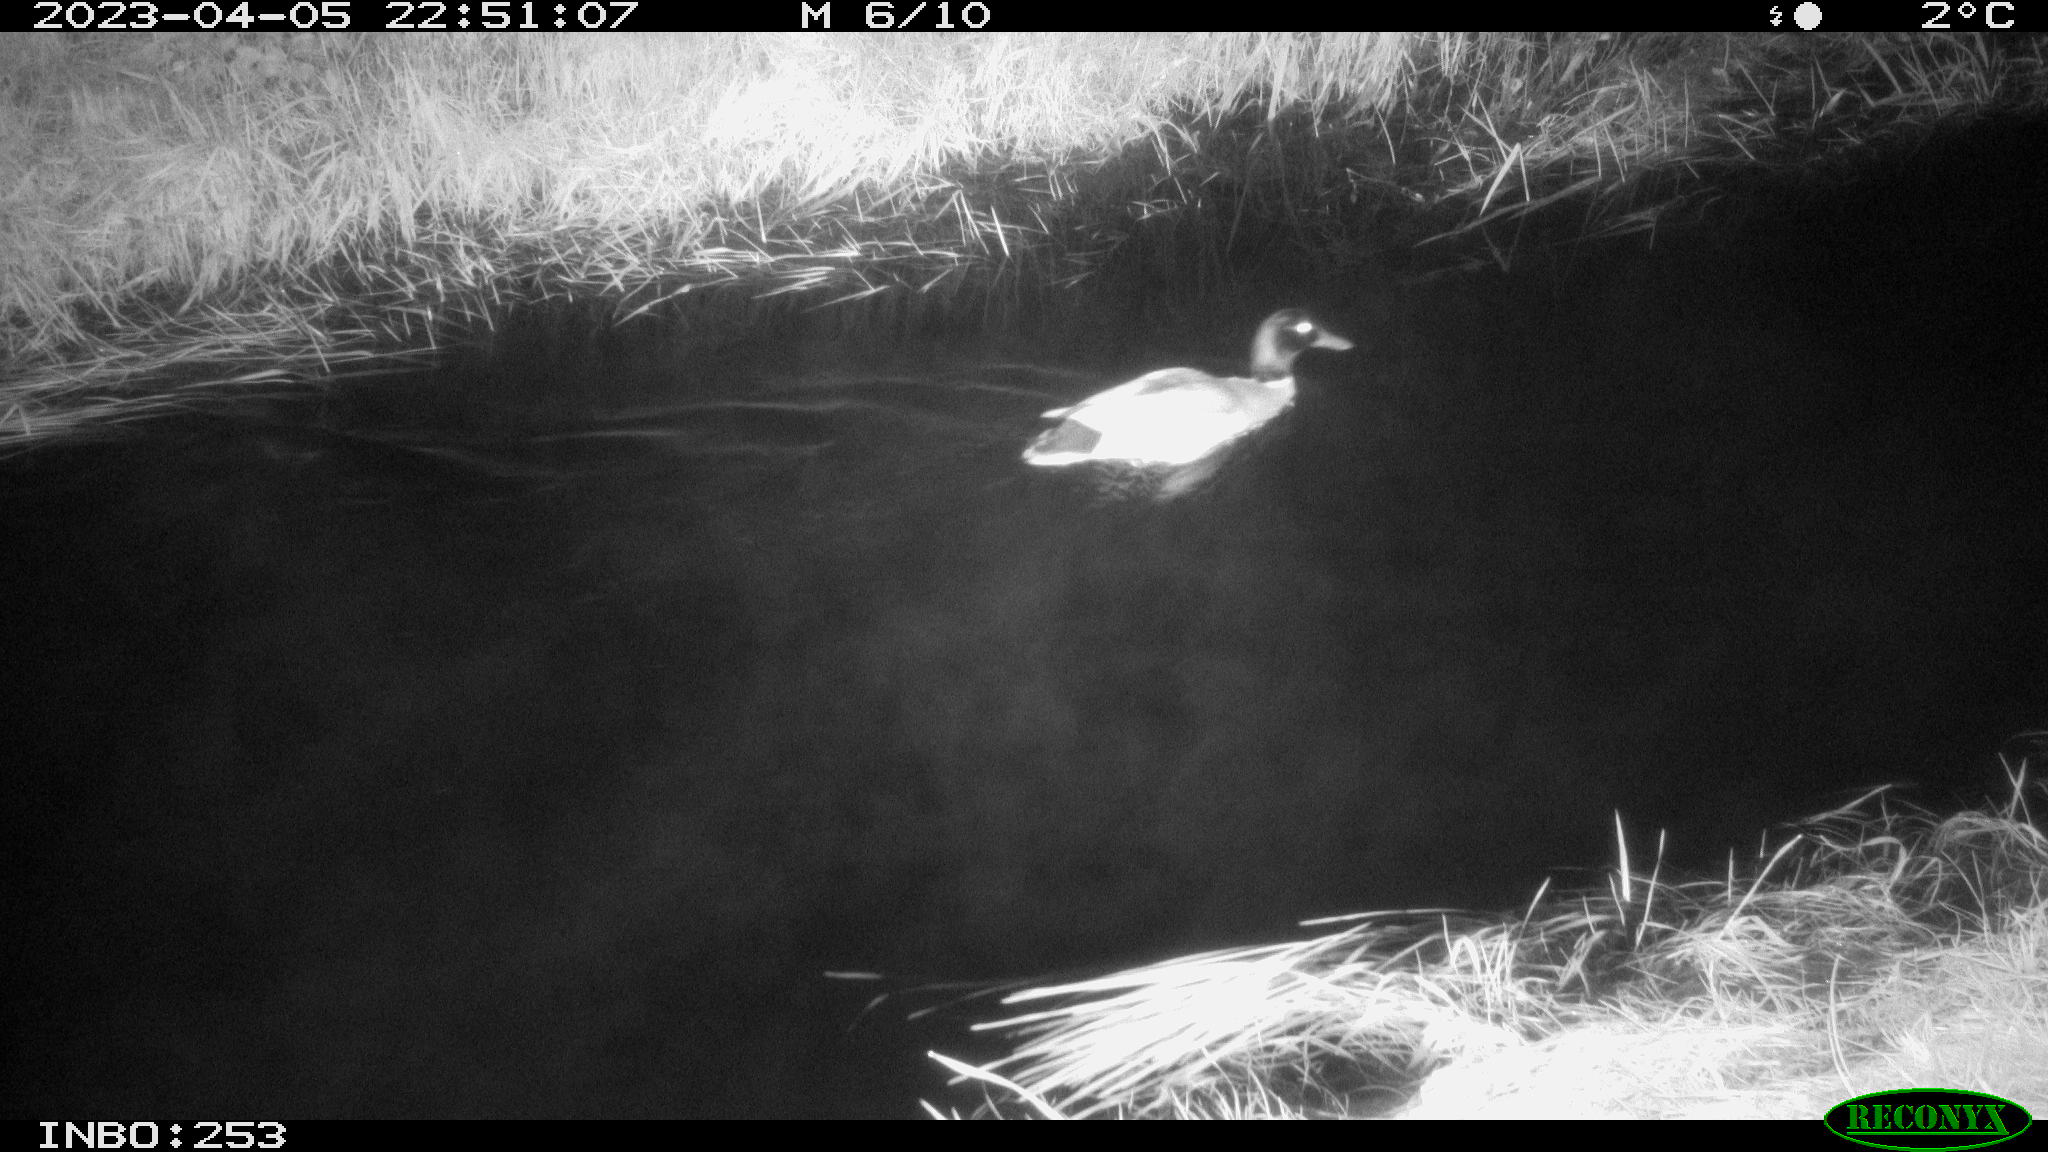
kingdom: Animalia
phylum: Chordata
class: Aves
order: Anseriformes
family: Anatidae
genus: Anas
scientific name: Anas
